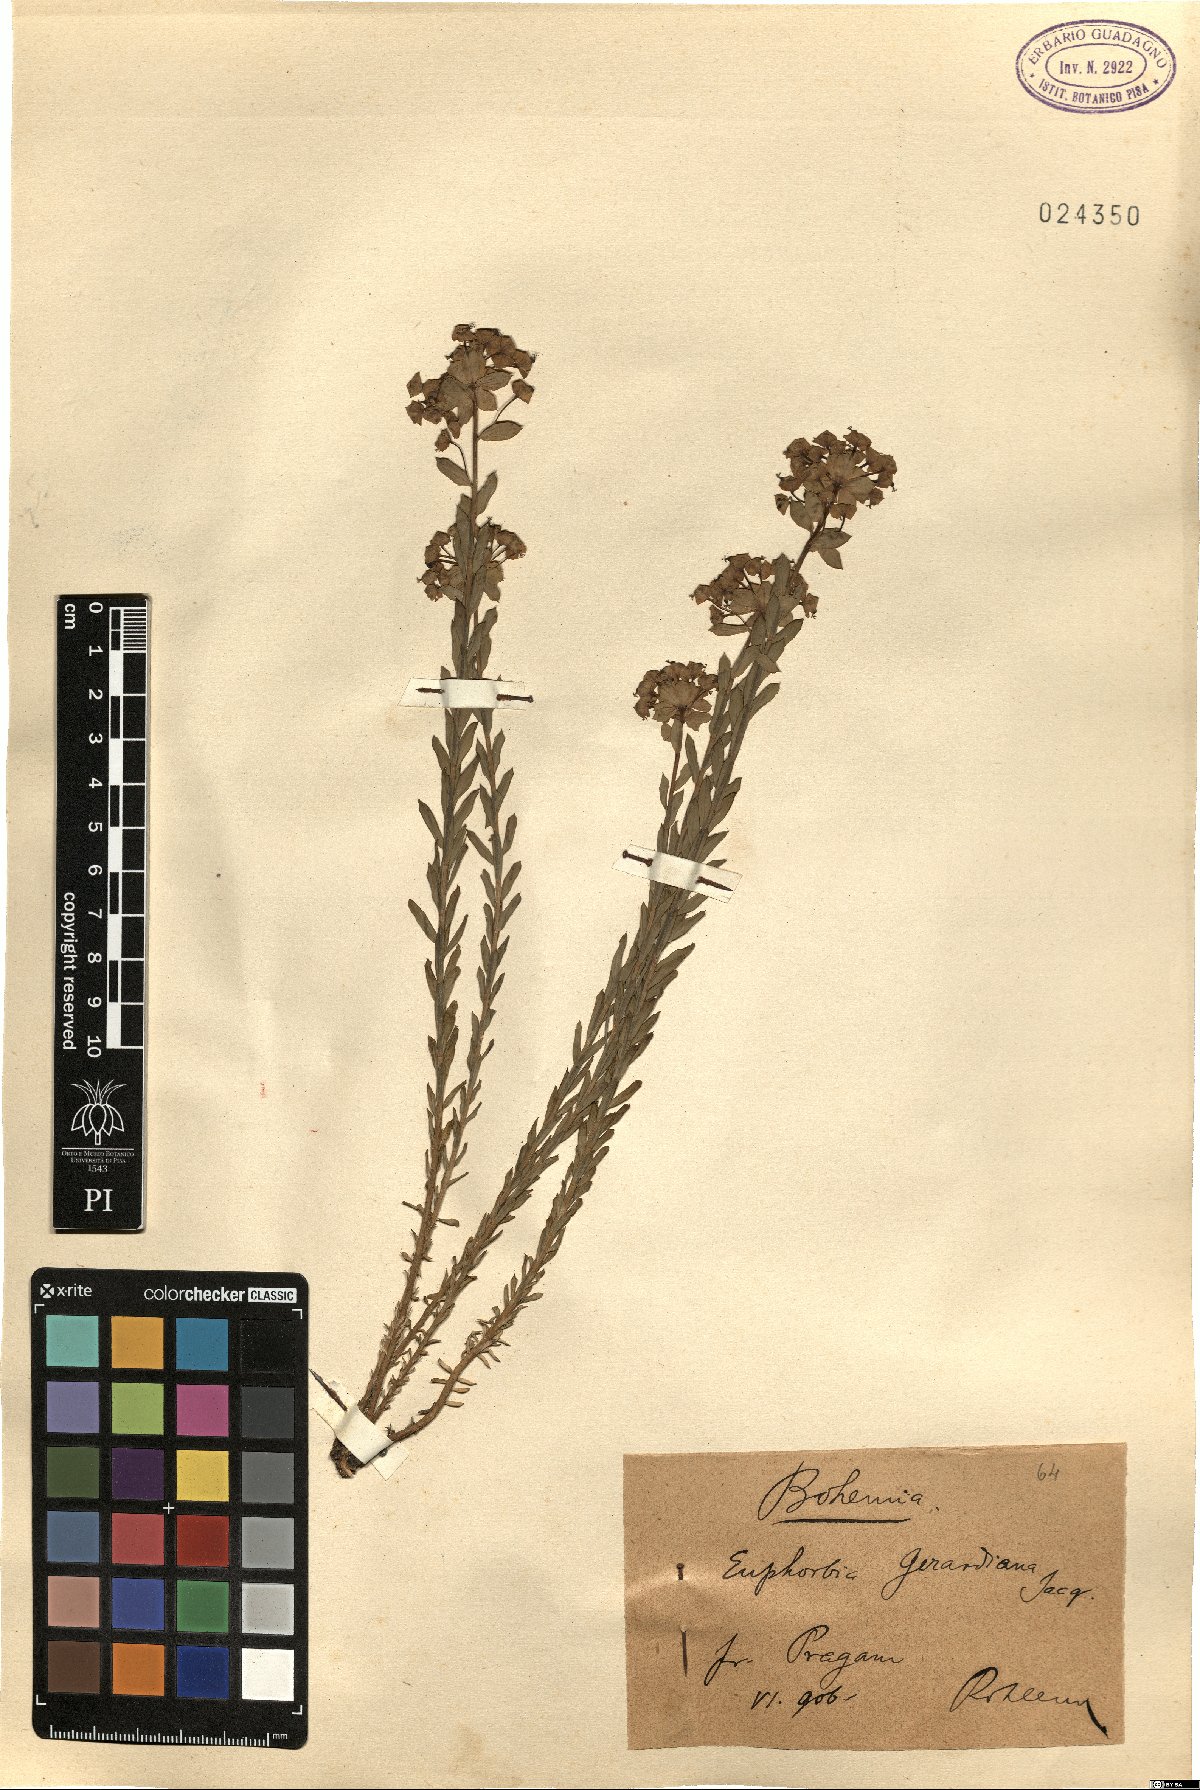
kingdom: Plantae
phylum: Tracheophyta
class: Magnoliopsida
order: Malpighiales
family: Euphorbiaceae
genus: Euphorbia
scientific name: Euphorbia seguieriana
